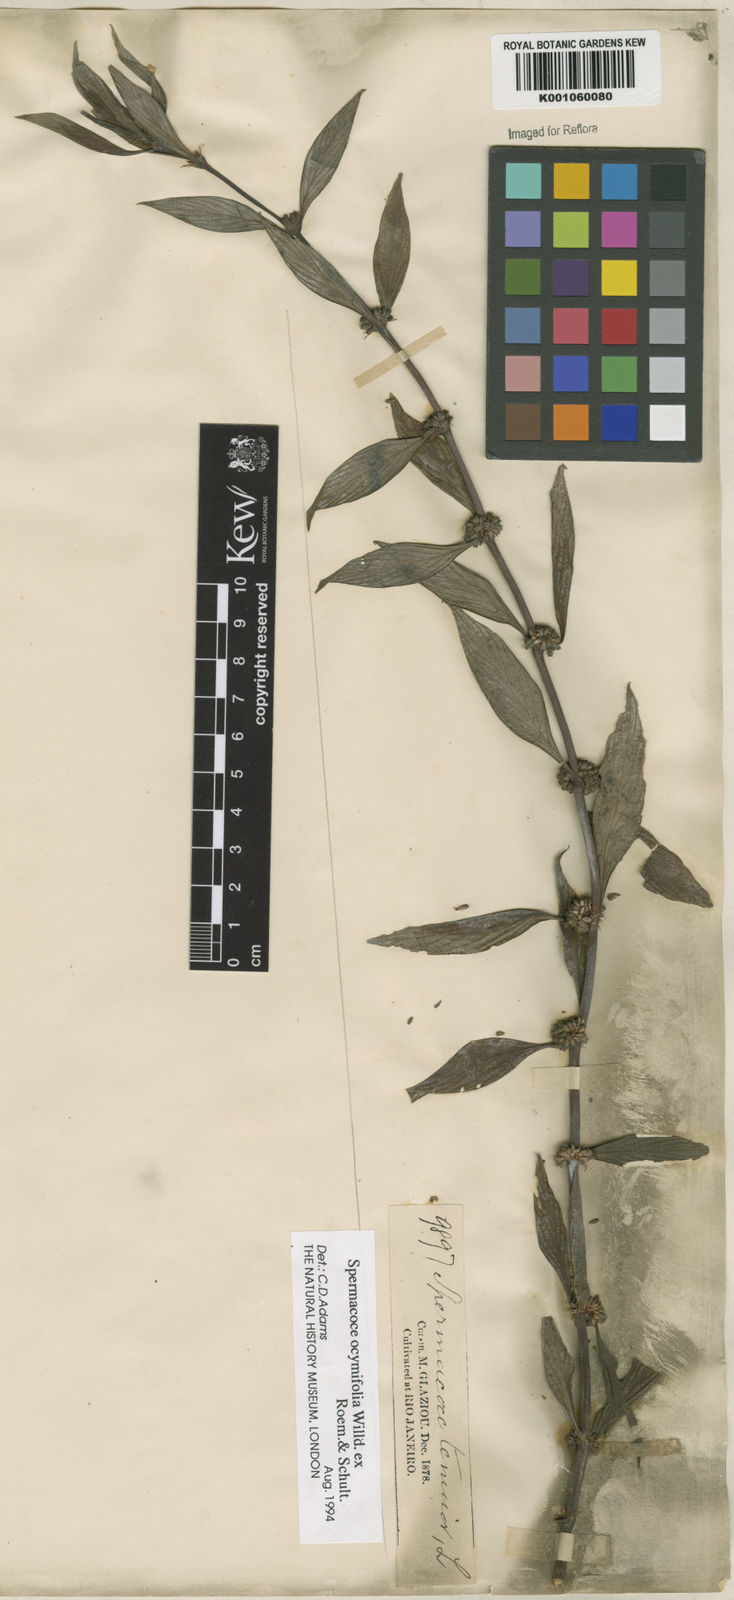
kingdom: Plantae
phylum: Tracheophyta
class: Magnoliopsida
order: Gentianales
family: Rubiaceae
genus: Spermacoce
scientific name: Spermacoce
